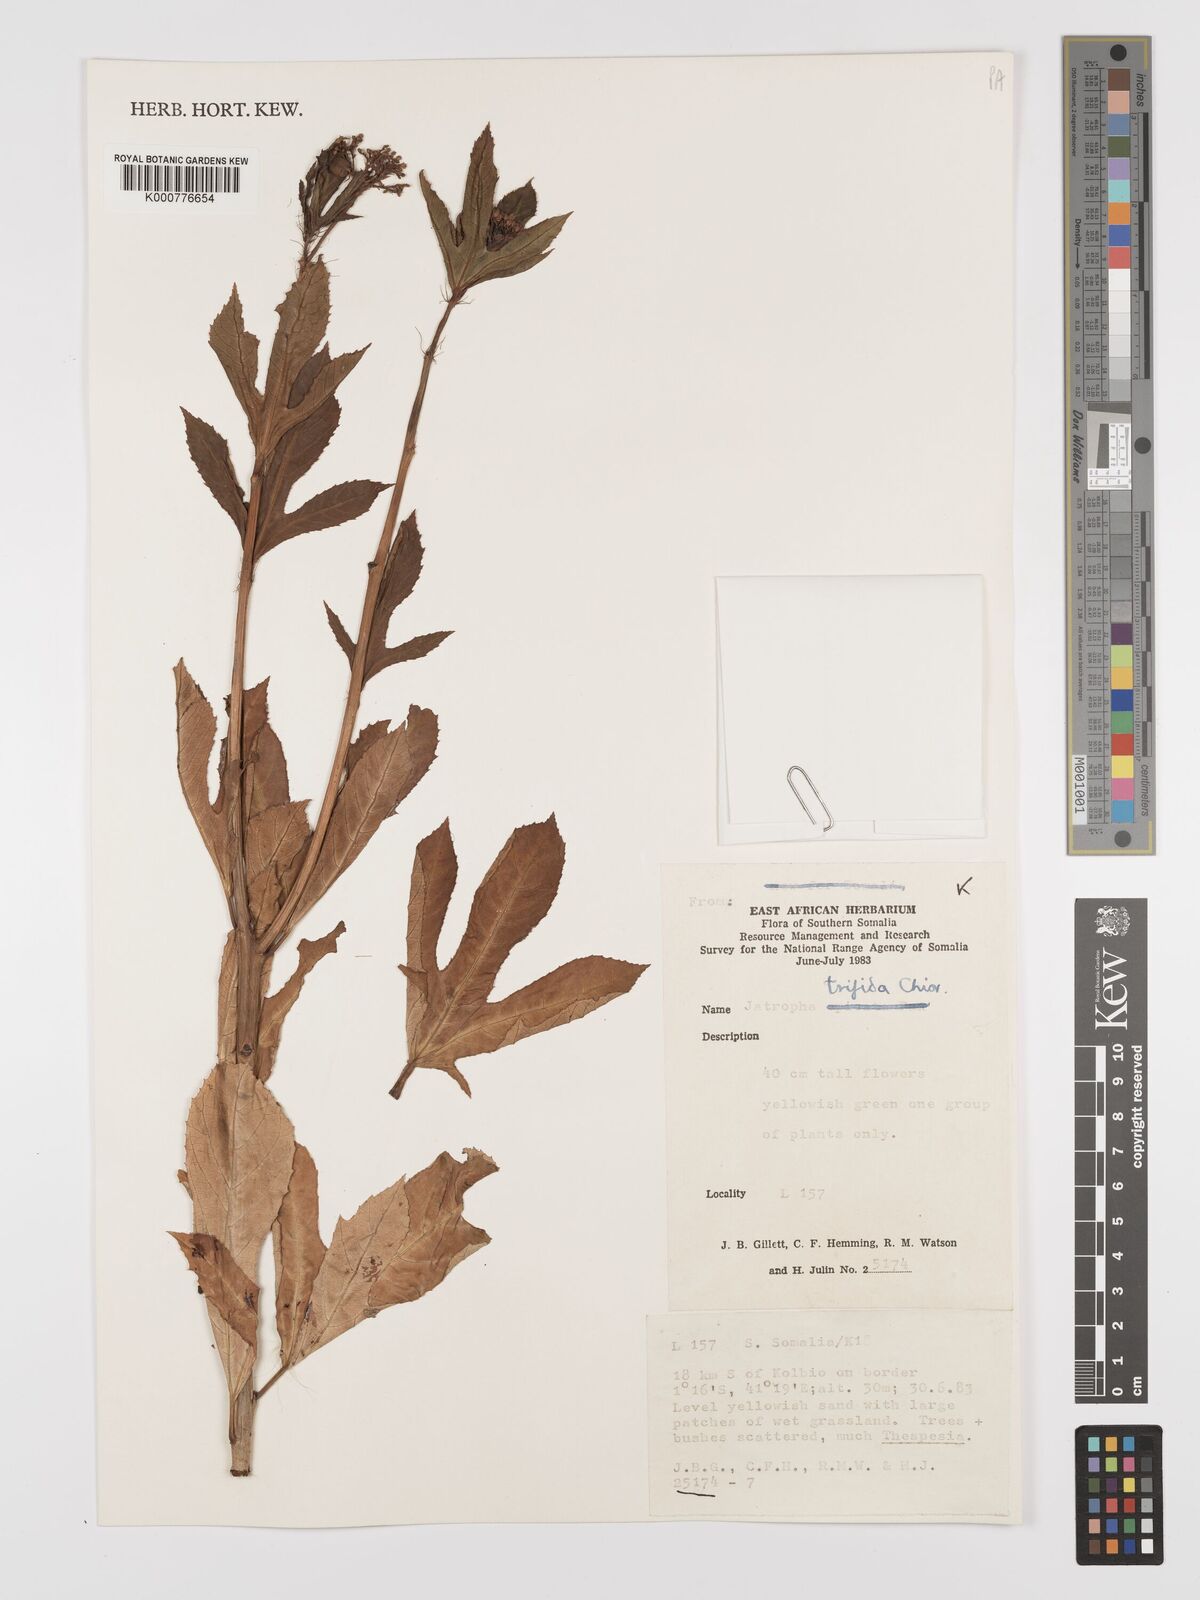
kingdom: Plantae
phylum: Tracheophyta
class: Magnoliopsida
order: Malpighiales
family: Euphorbiaceae
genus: Jatropha
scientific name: Jatropha trifida
